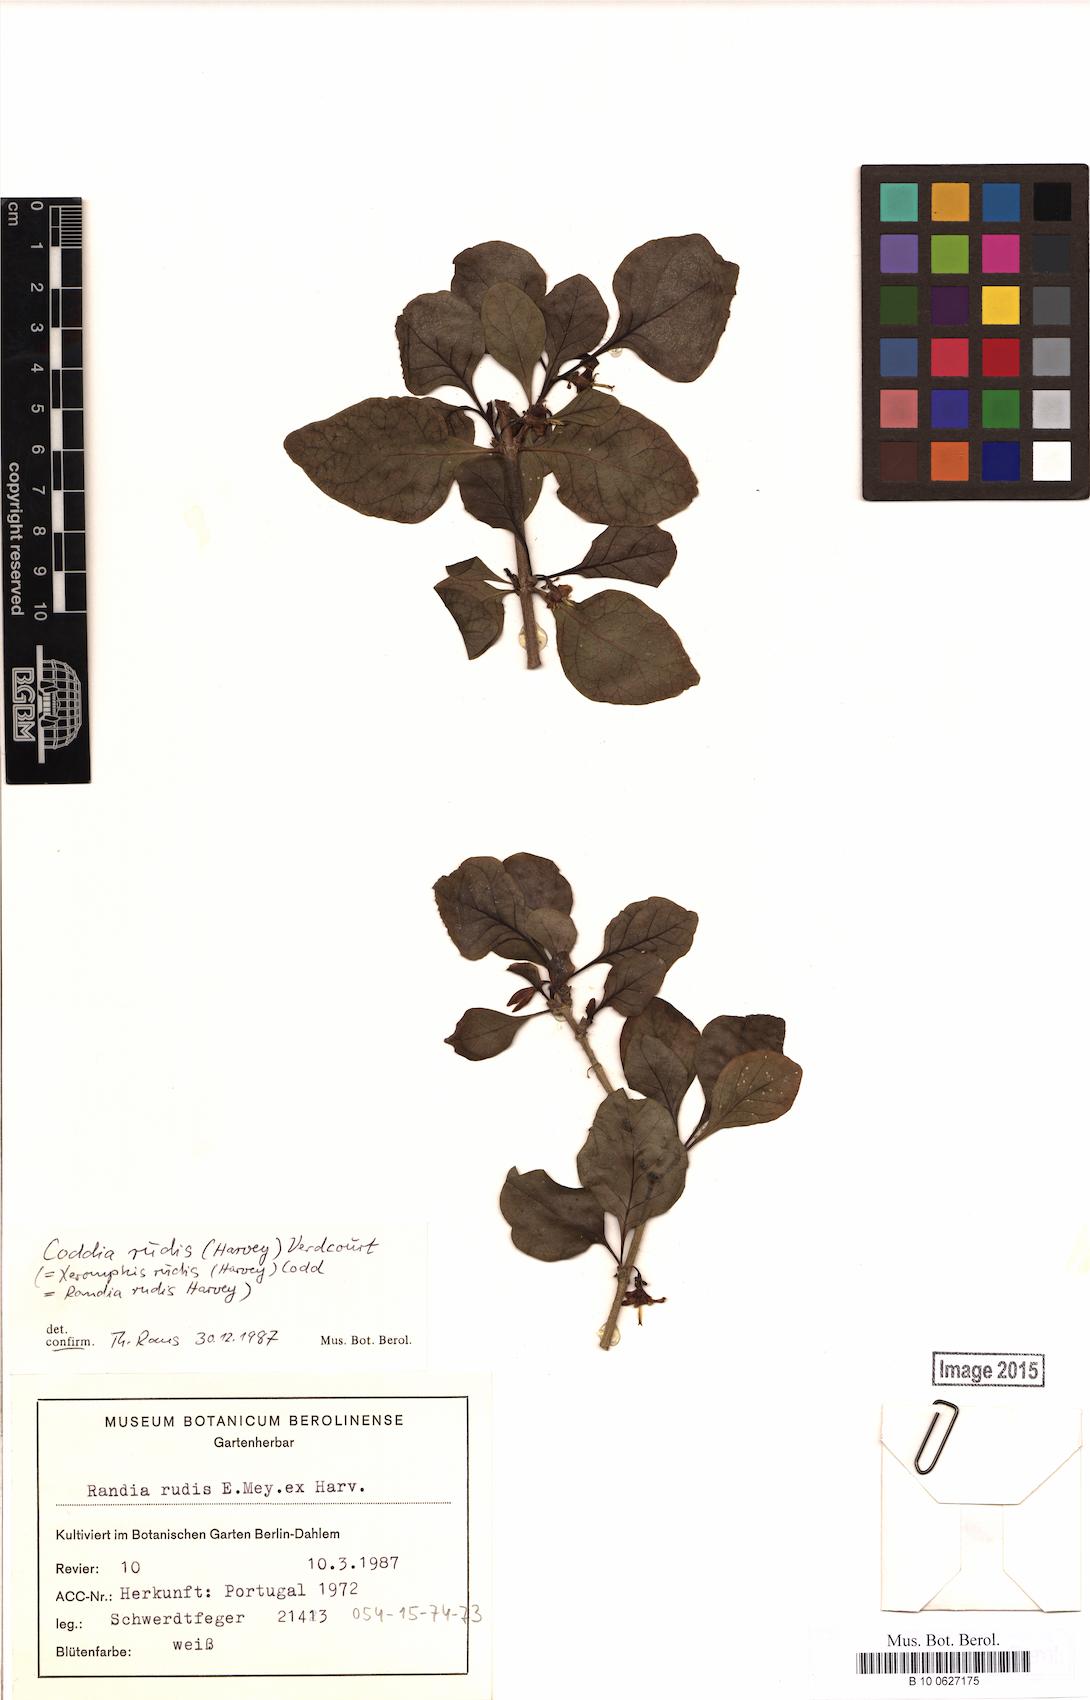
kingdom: Plantae
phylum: Tracheophyta
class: Magnoliopsida
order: Gentianales
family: Rubiaceae
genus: Coddia
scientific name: Coddia rudis
